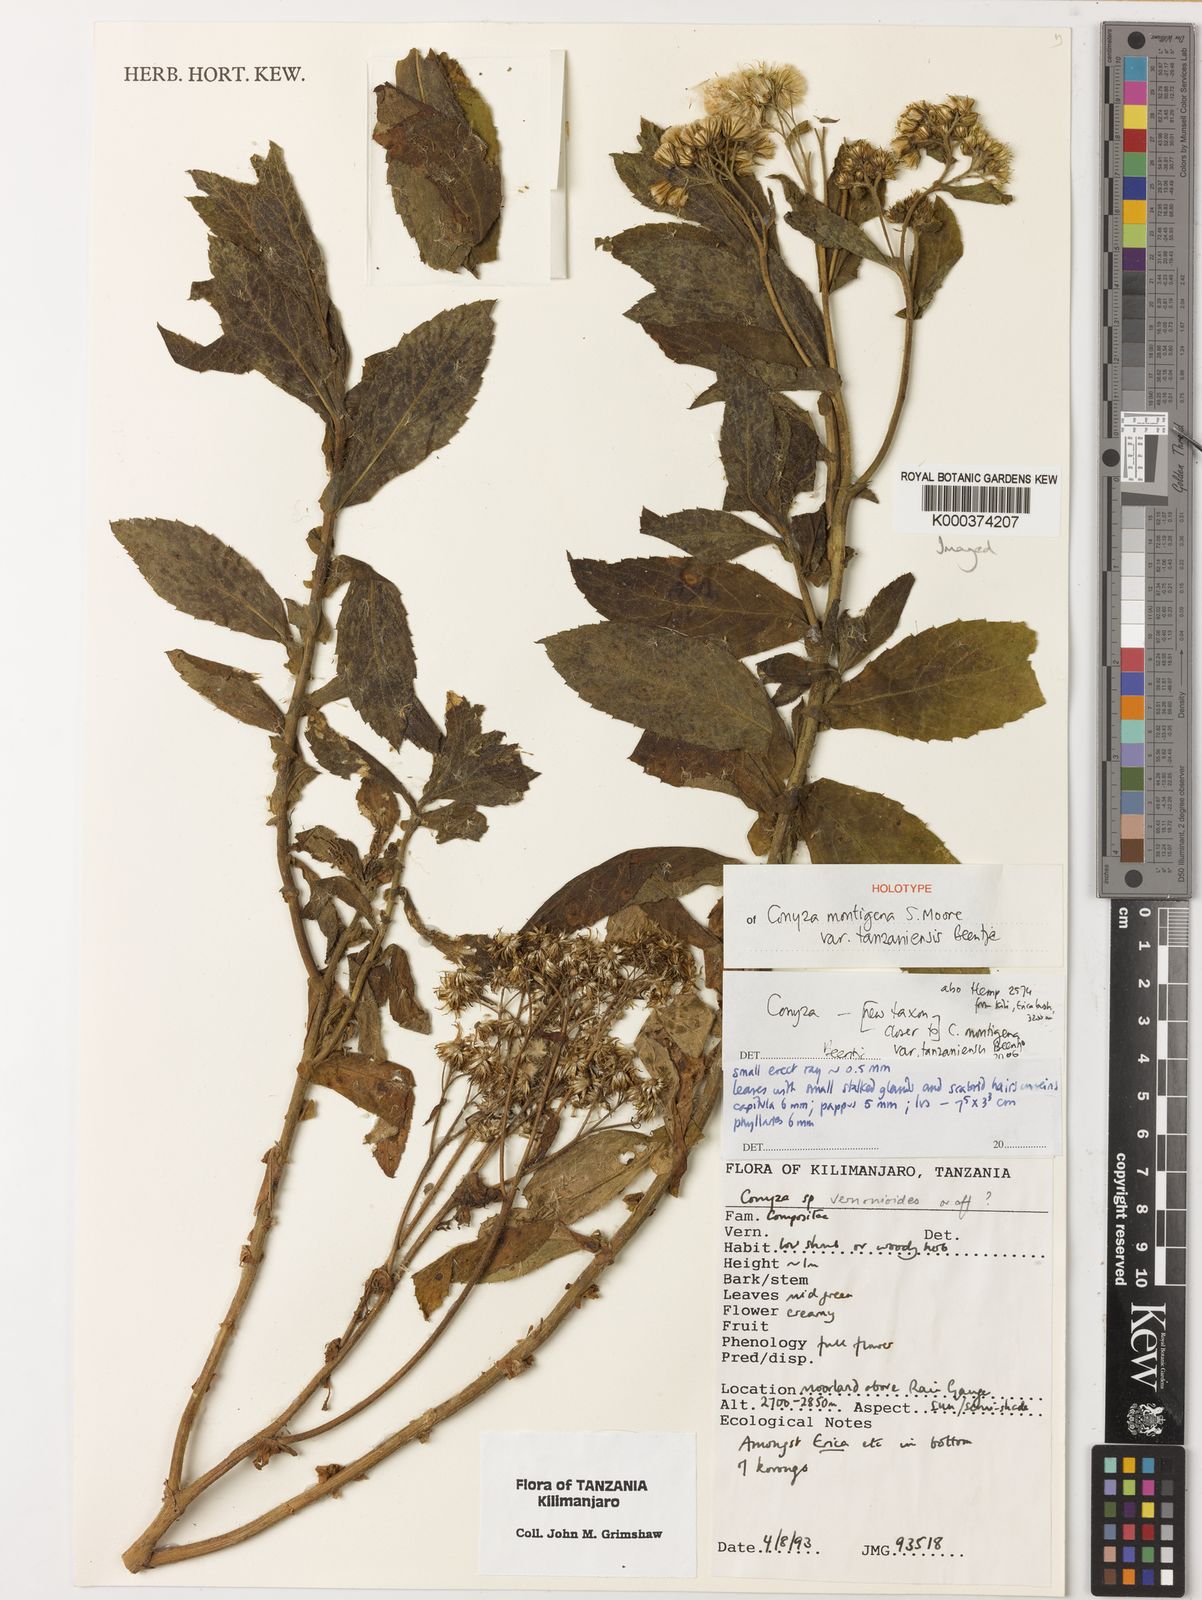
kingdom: Plantae
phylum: Tracheophyta
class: Magnoliopsida
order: Asterales
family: Asteraceae
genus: Conyza
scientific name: Conyza montigena
